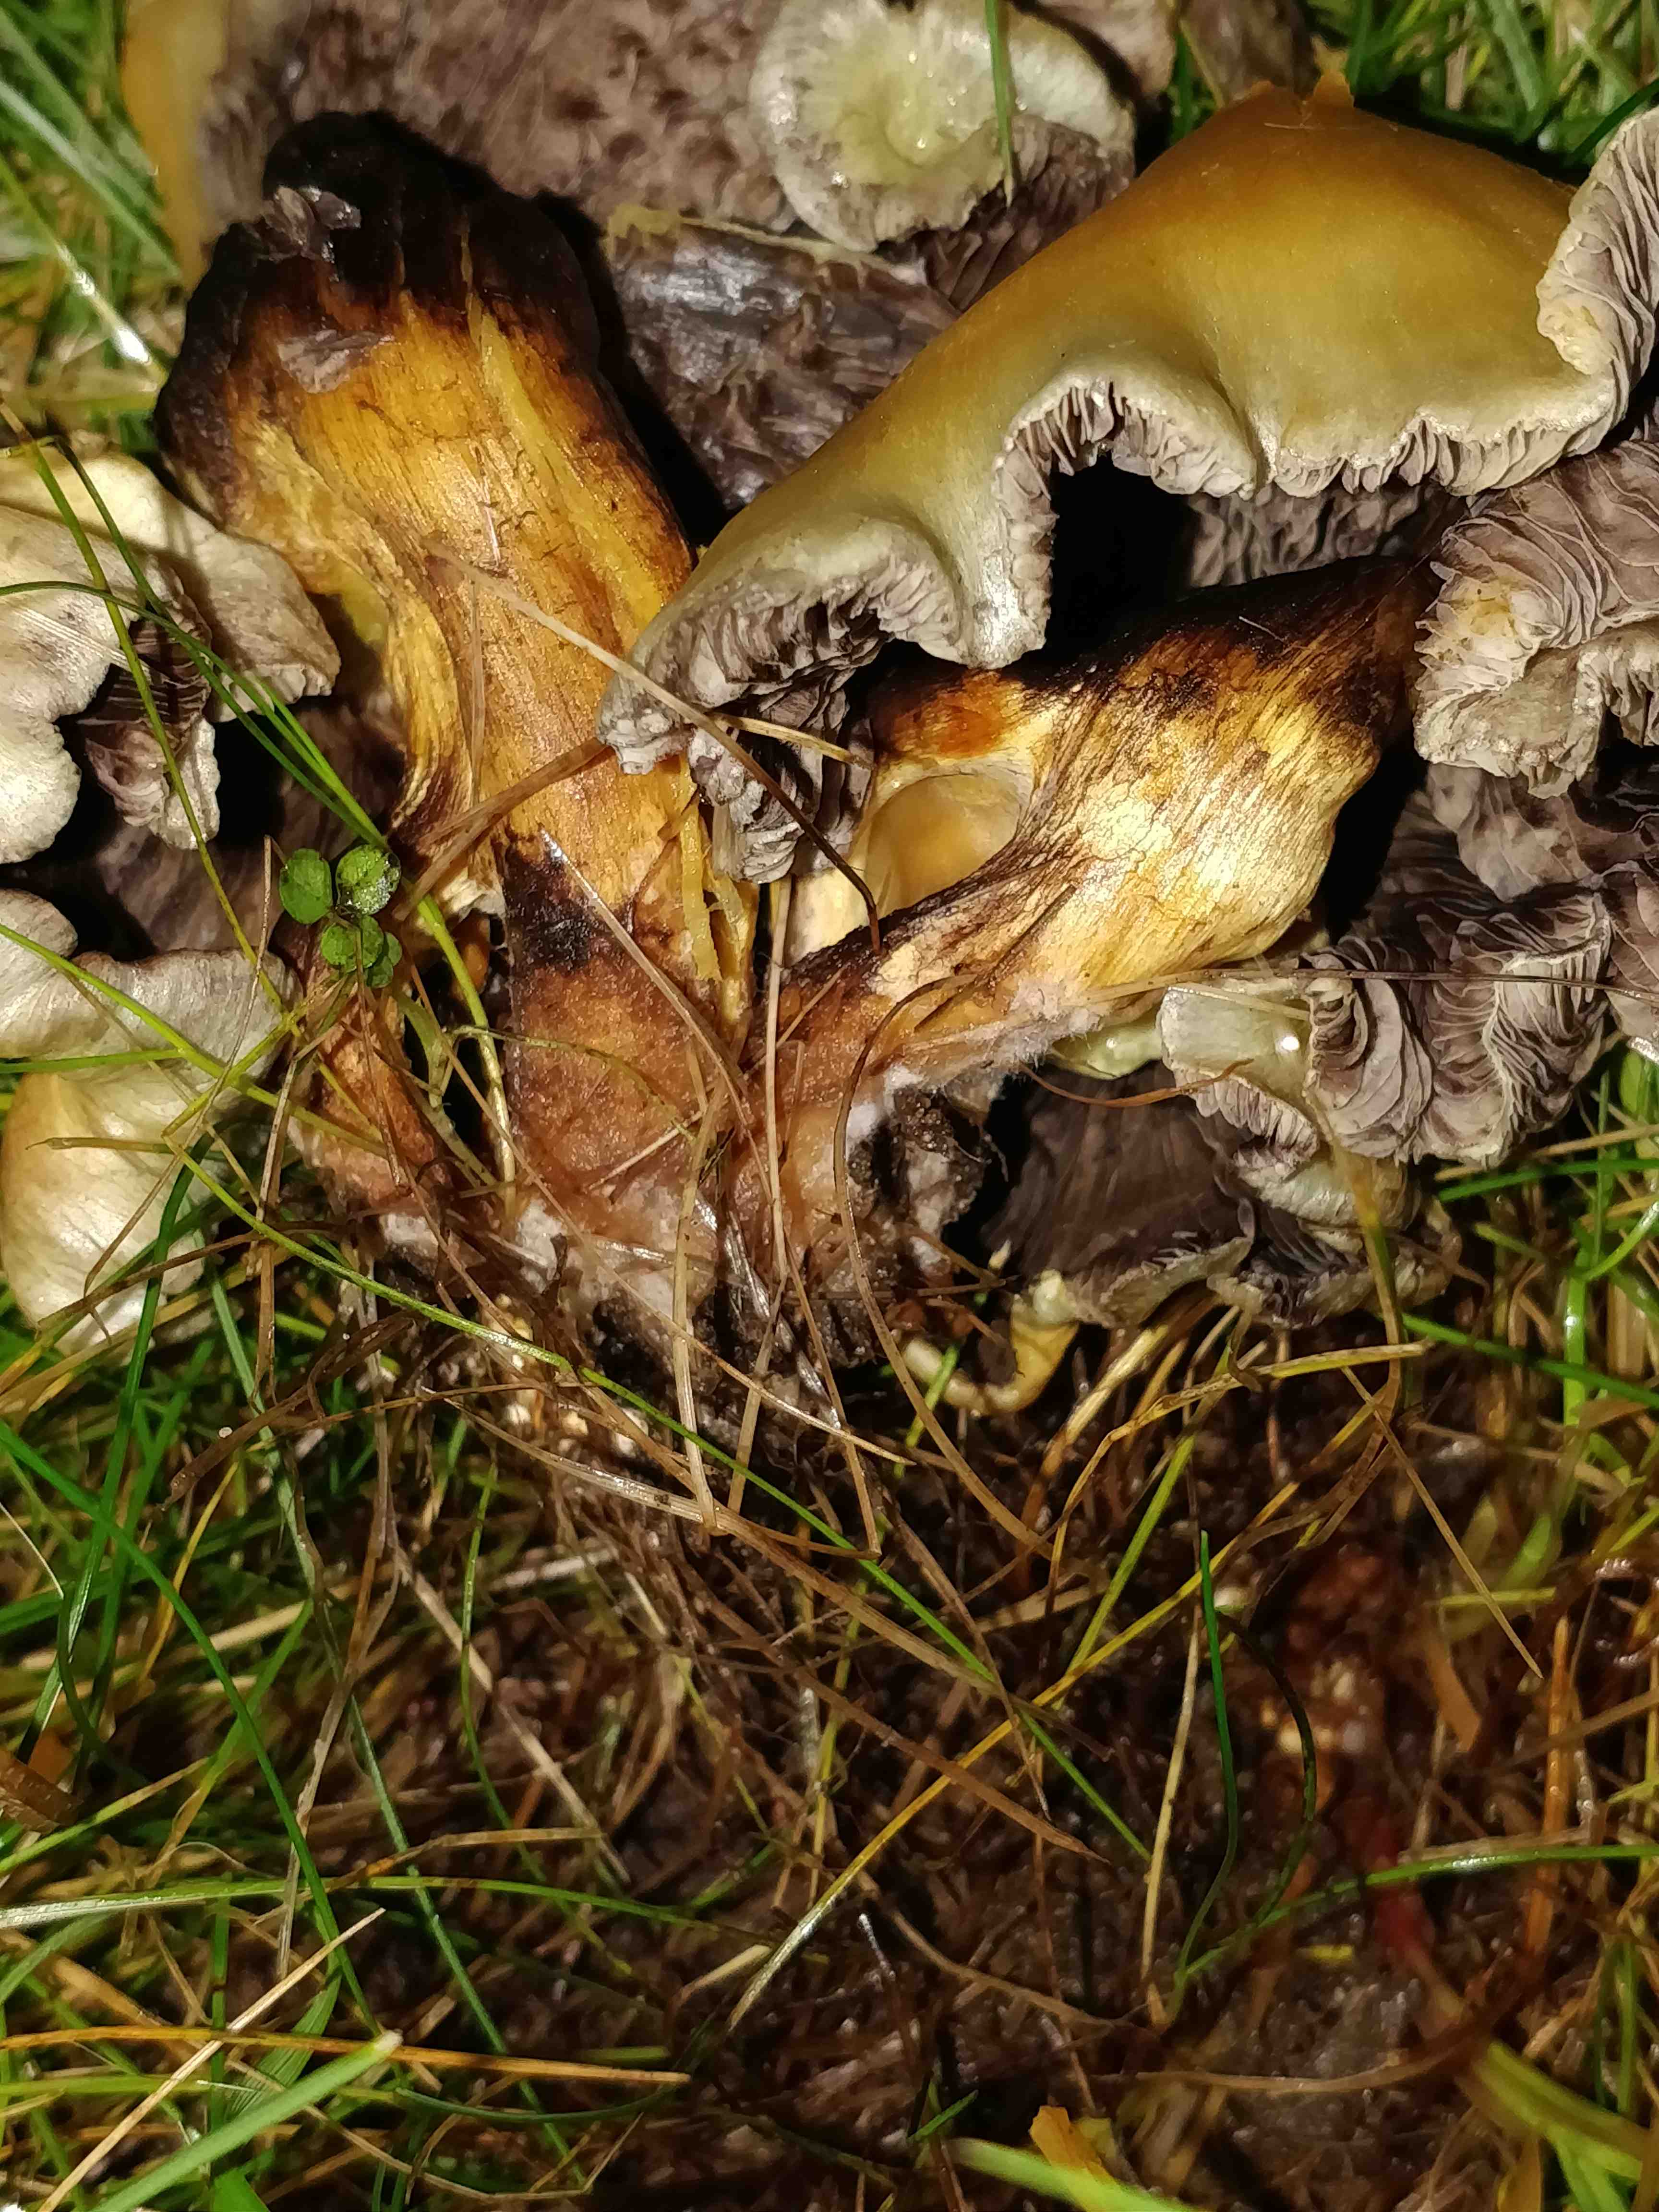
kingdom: Fungi
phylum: Basidiomycota
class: Agaricomycetes
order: Agaricales
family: Strophariaceae
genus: Hypholoma
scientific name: Hypholoma fasciculare
